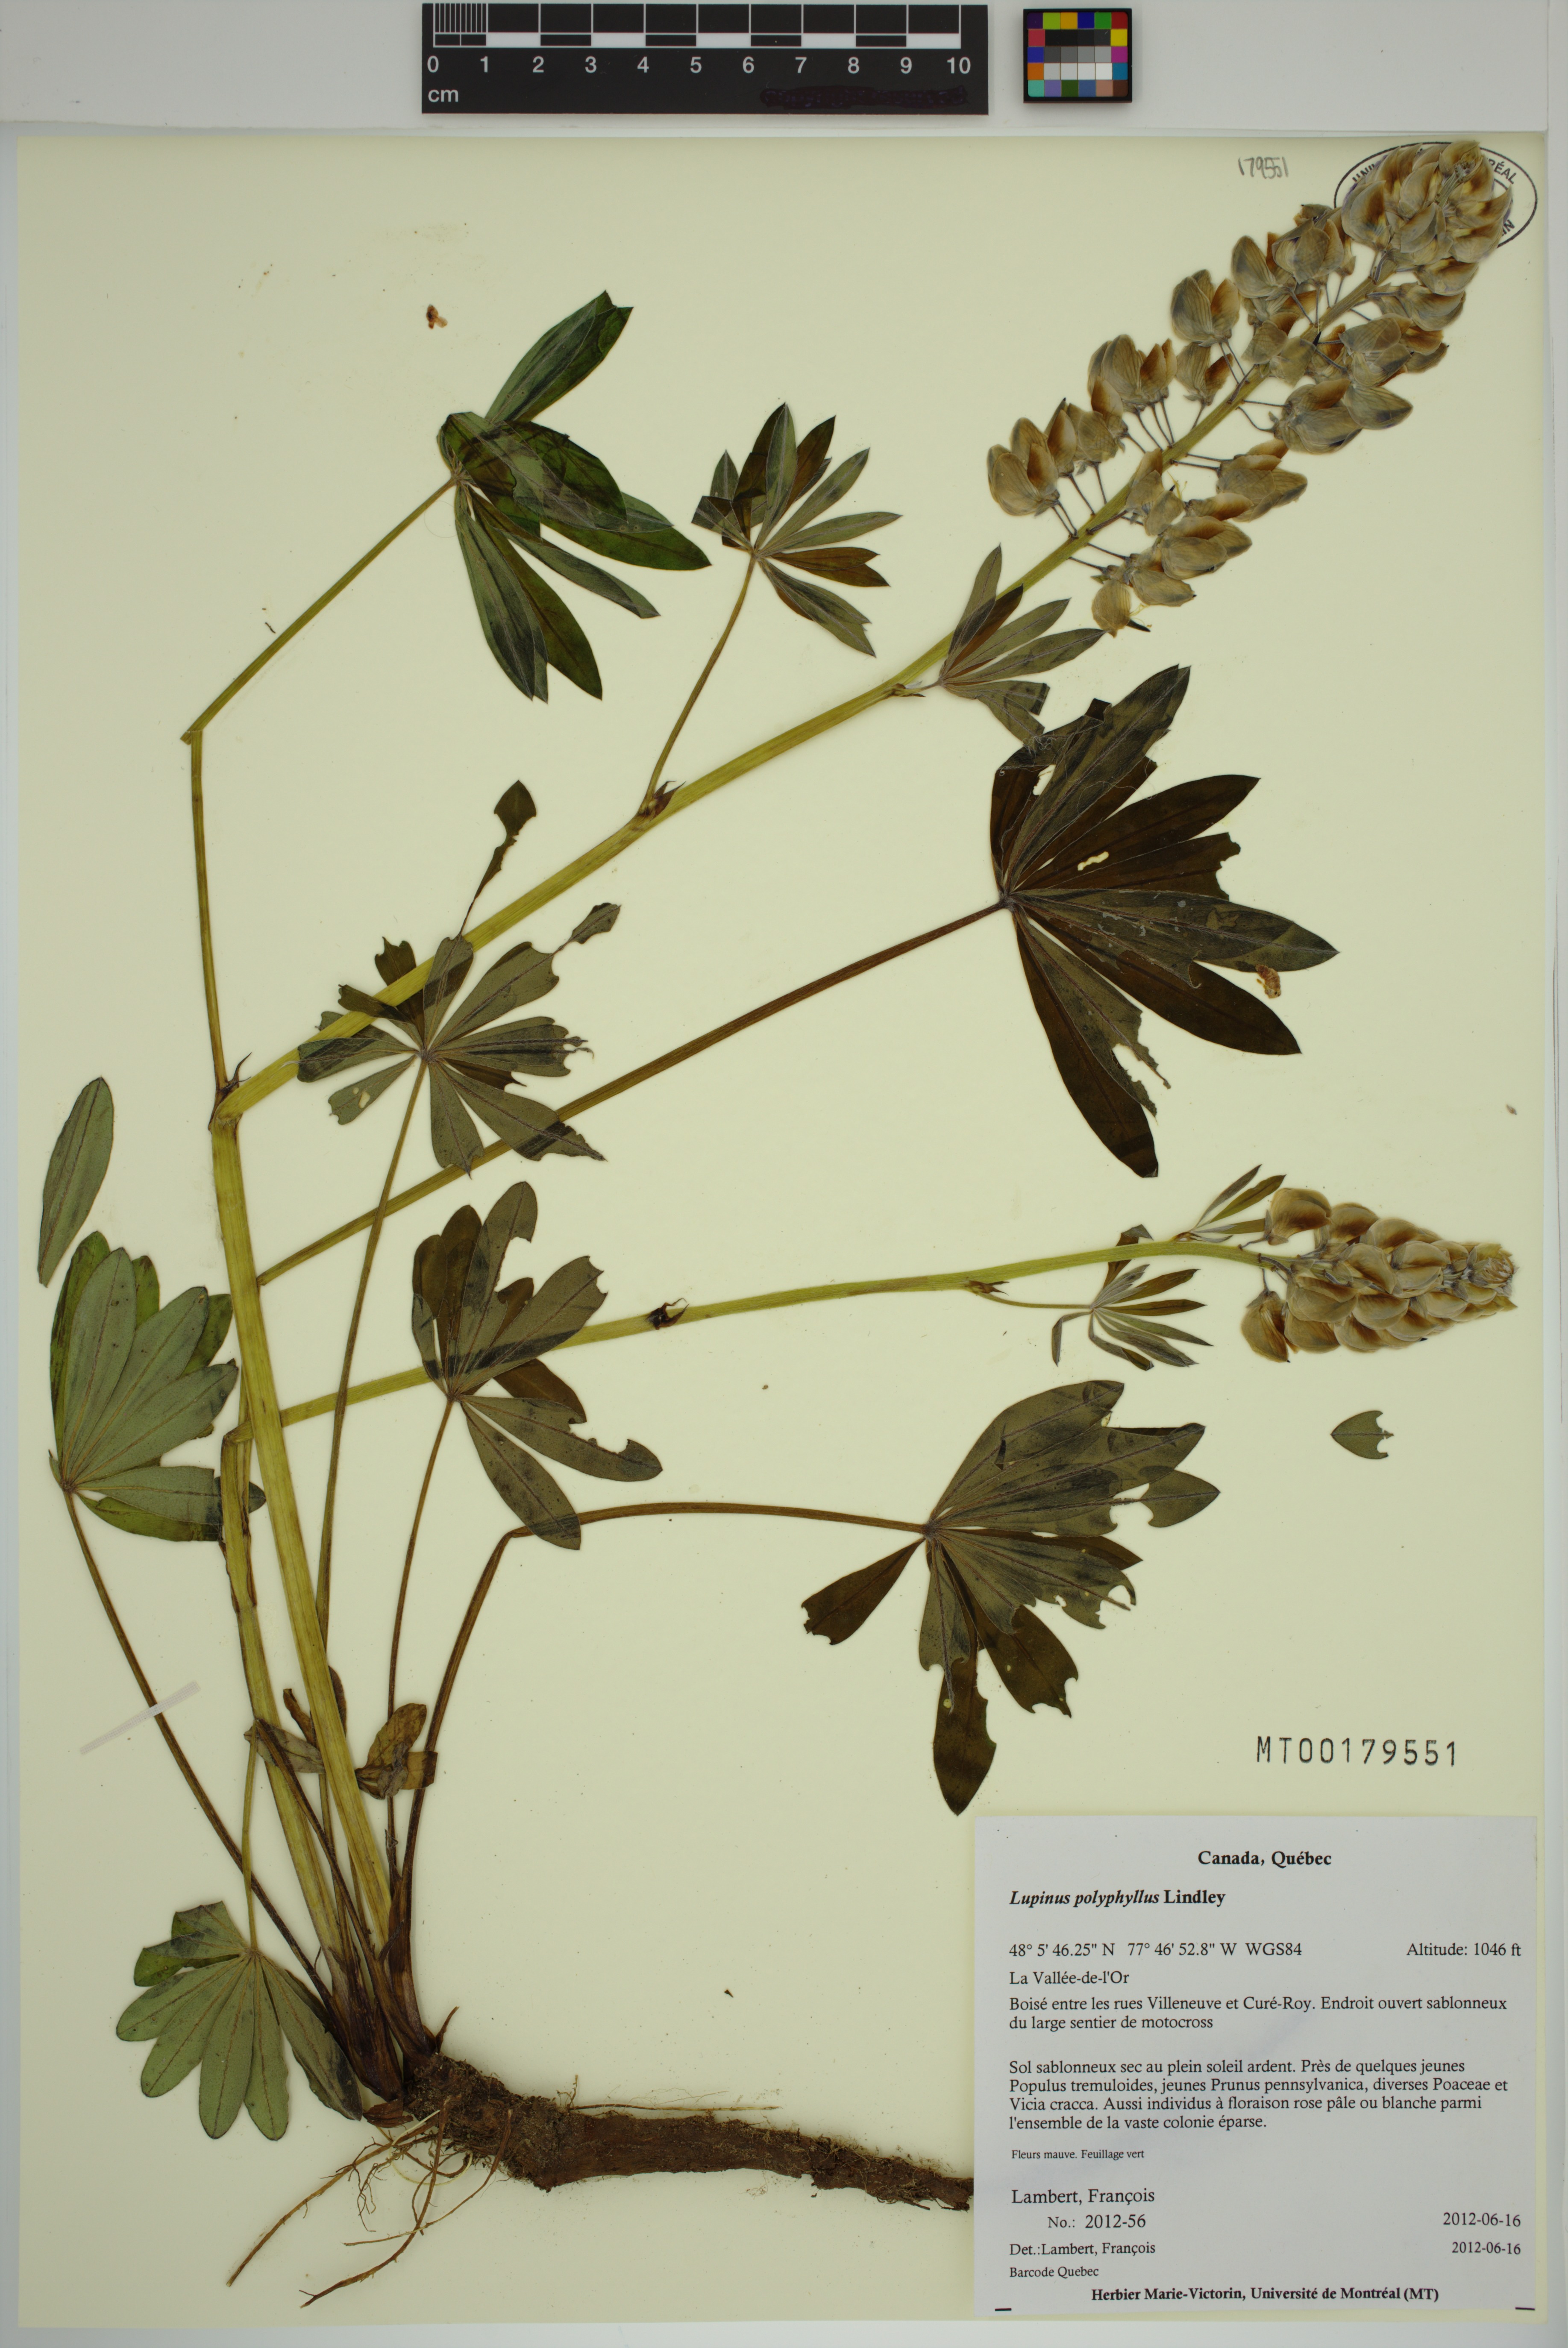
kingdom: Plantae
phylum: Tracheophyta
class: Magnoliopsida
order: Fabales
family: Fabaceae
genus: Lupinus
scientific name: Lupinus polyphyllus
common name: Garden lupin
